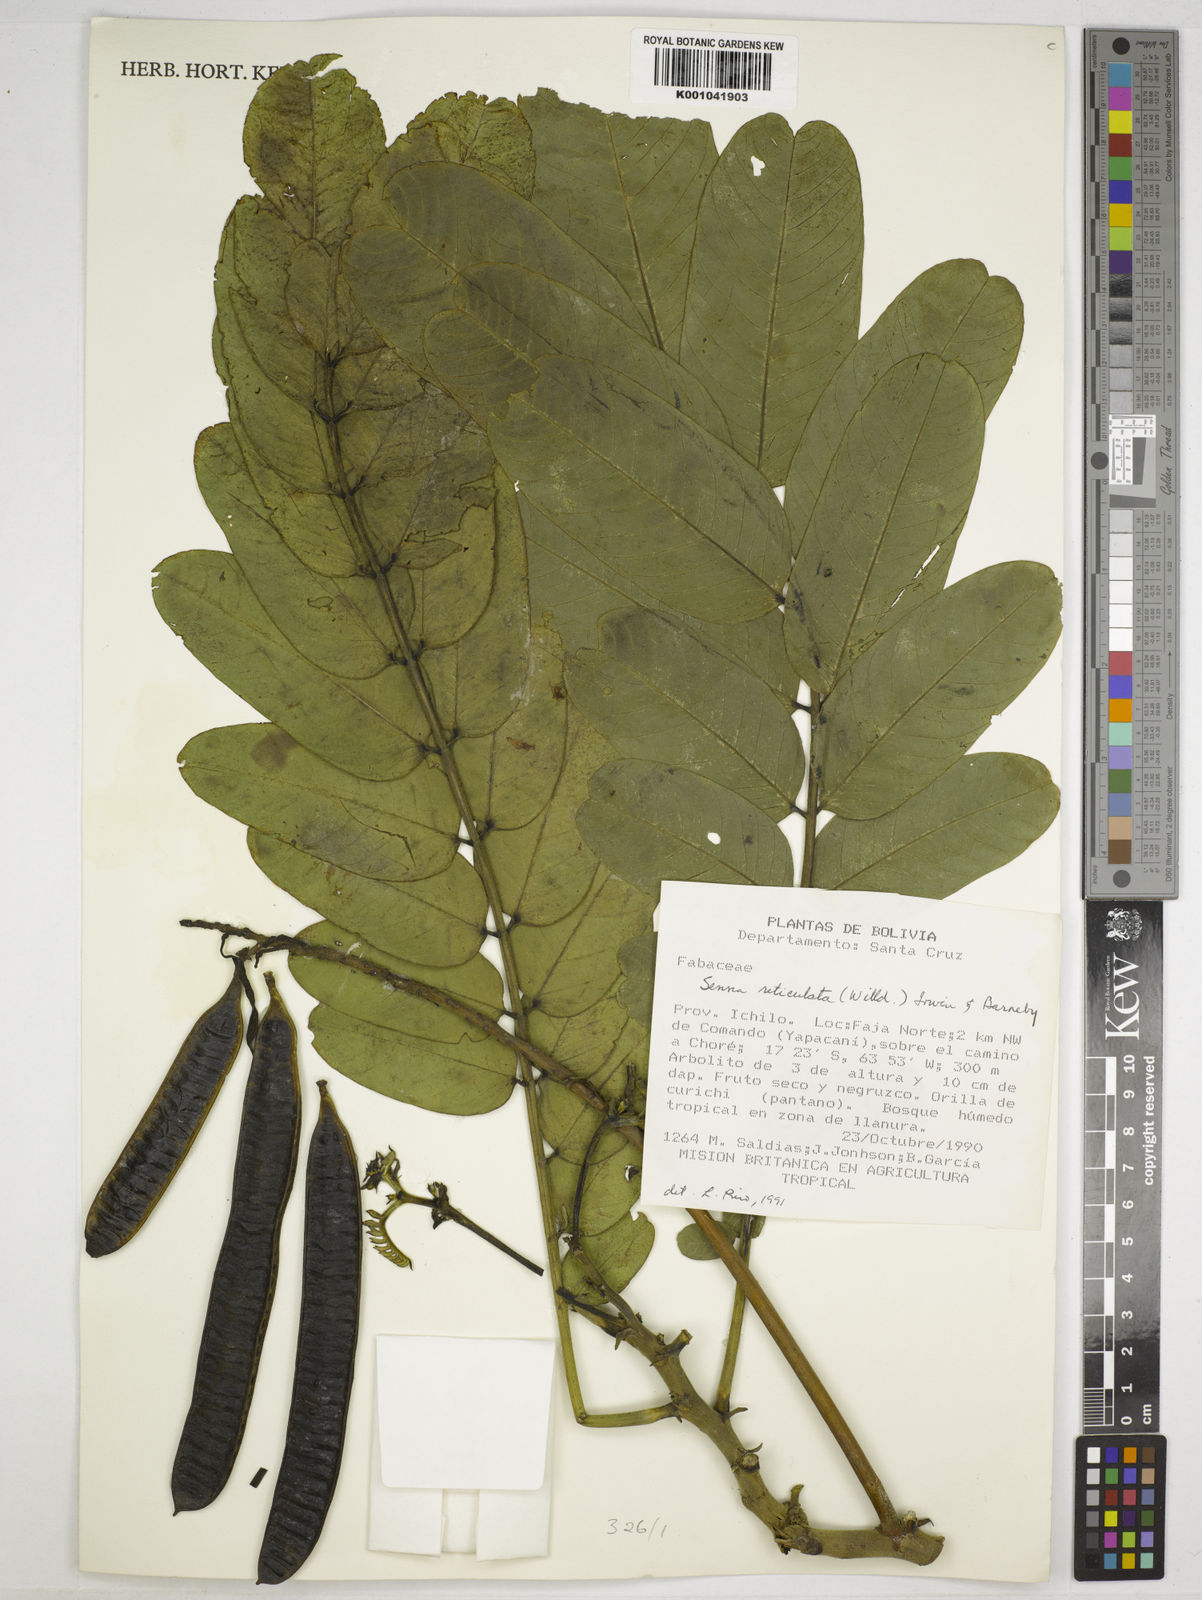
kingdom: Plantae
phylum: Tracheophyta
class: Magnoliopsida
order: Fabales
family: Fabaceae
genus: Senna
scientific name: Senna reticulata
